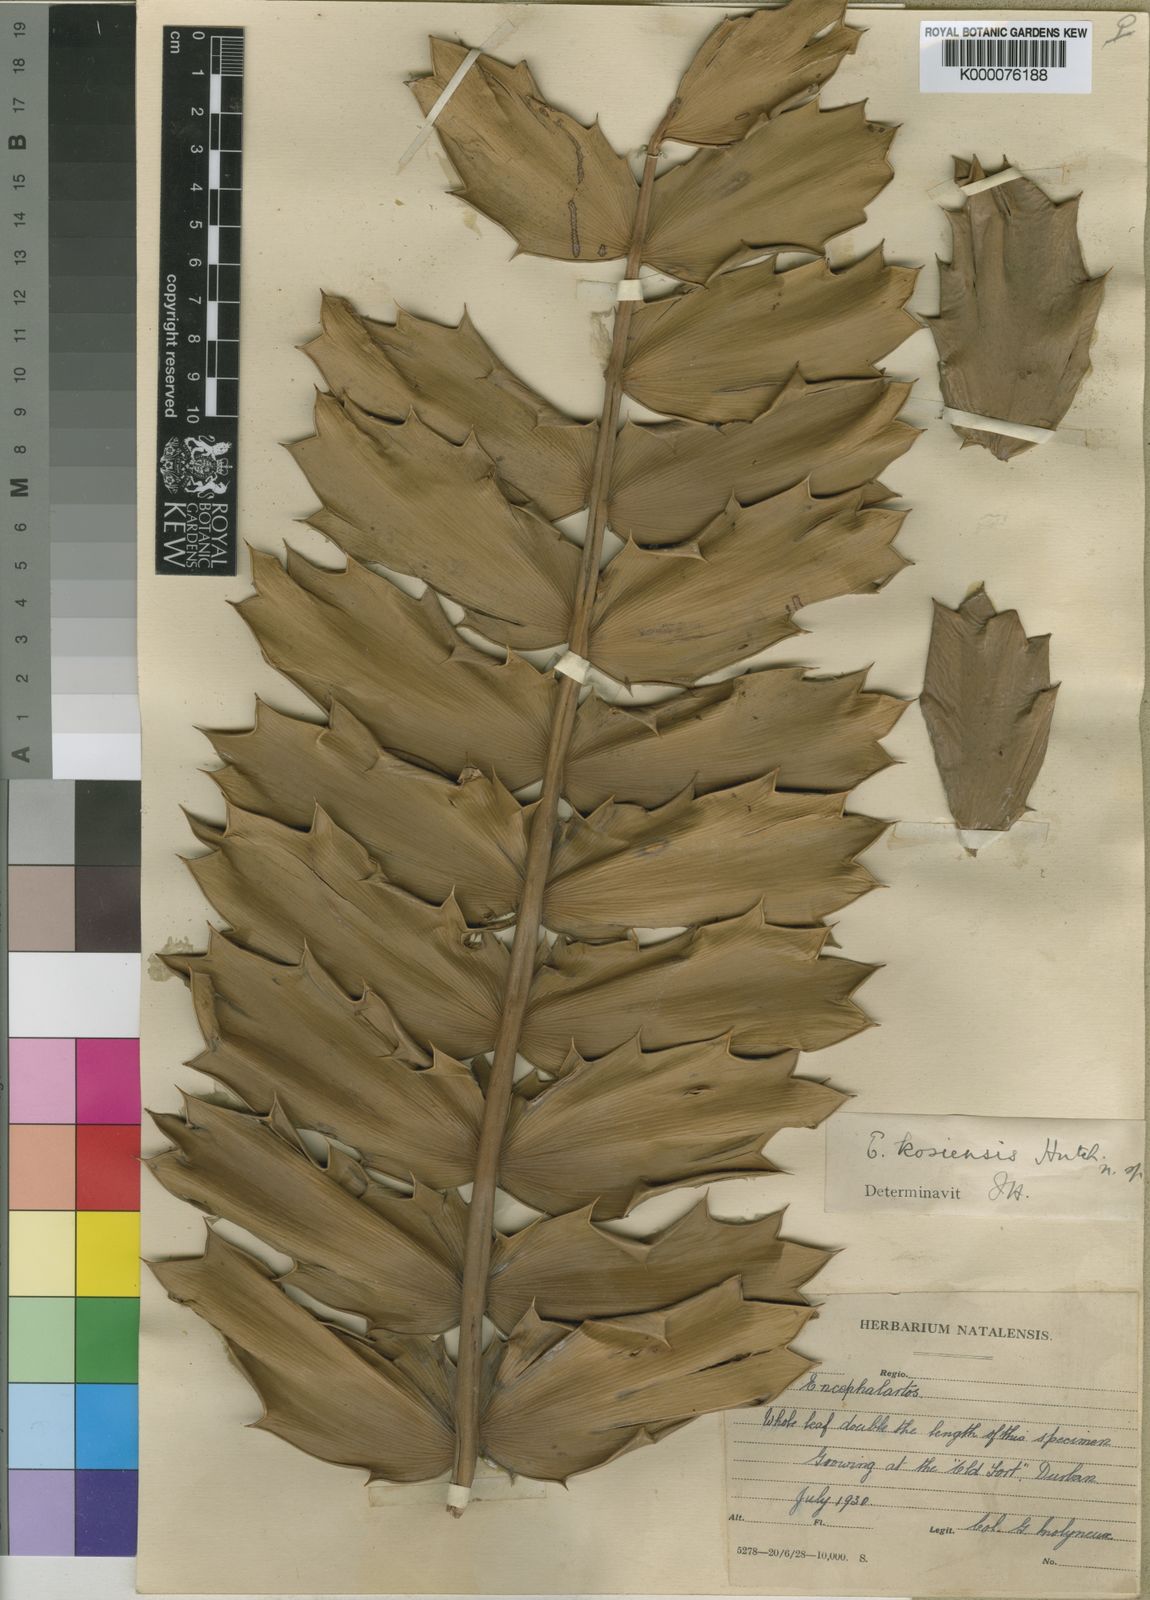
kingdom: Plantae
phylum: Tracheophyta
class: Cycadopsida
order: Cycadales
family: Zamiaceae
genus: Encephalartos
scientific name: Encephalartos ferox
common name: Kozi cycad
